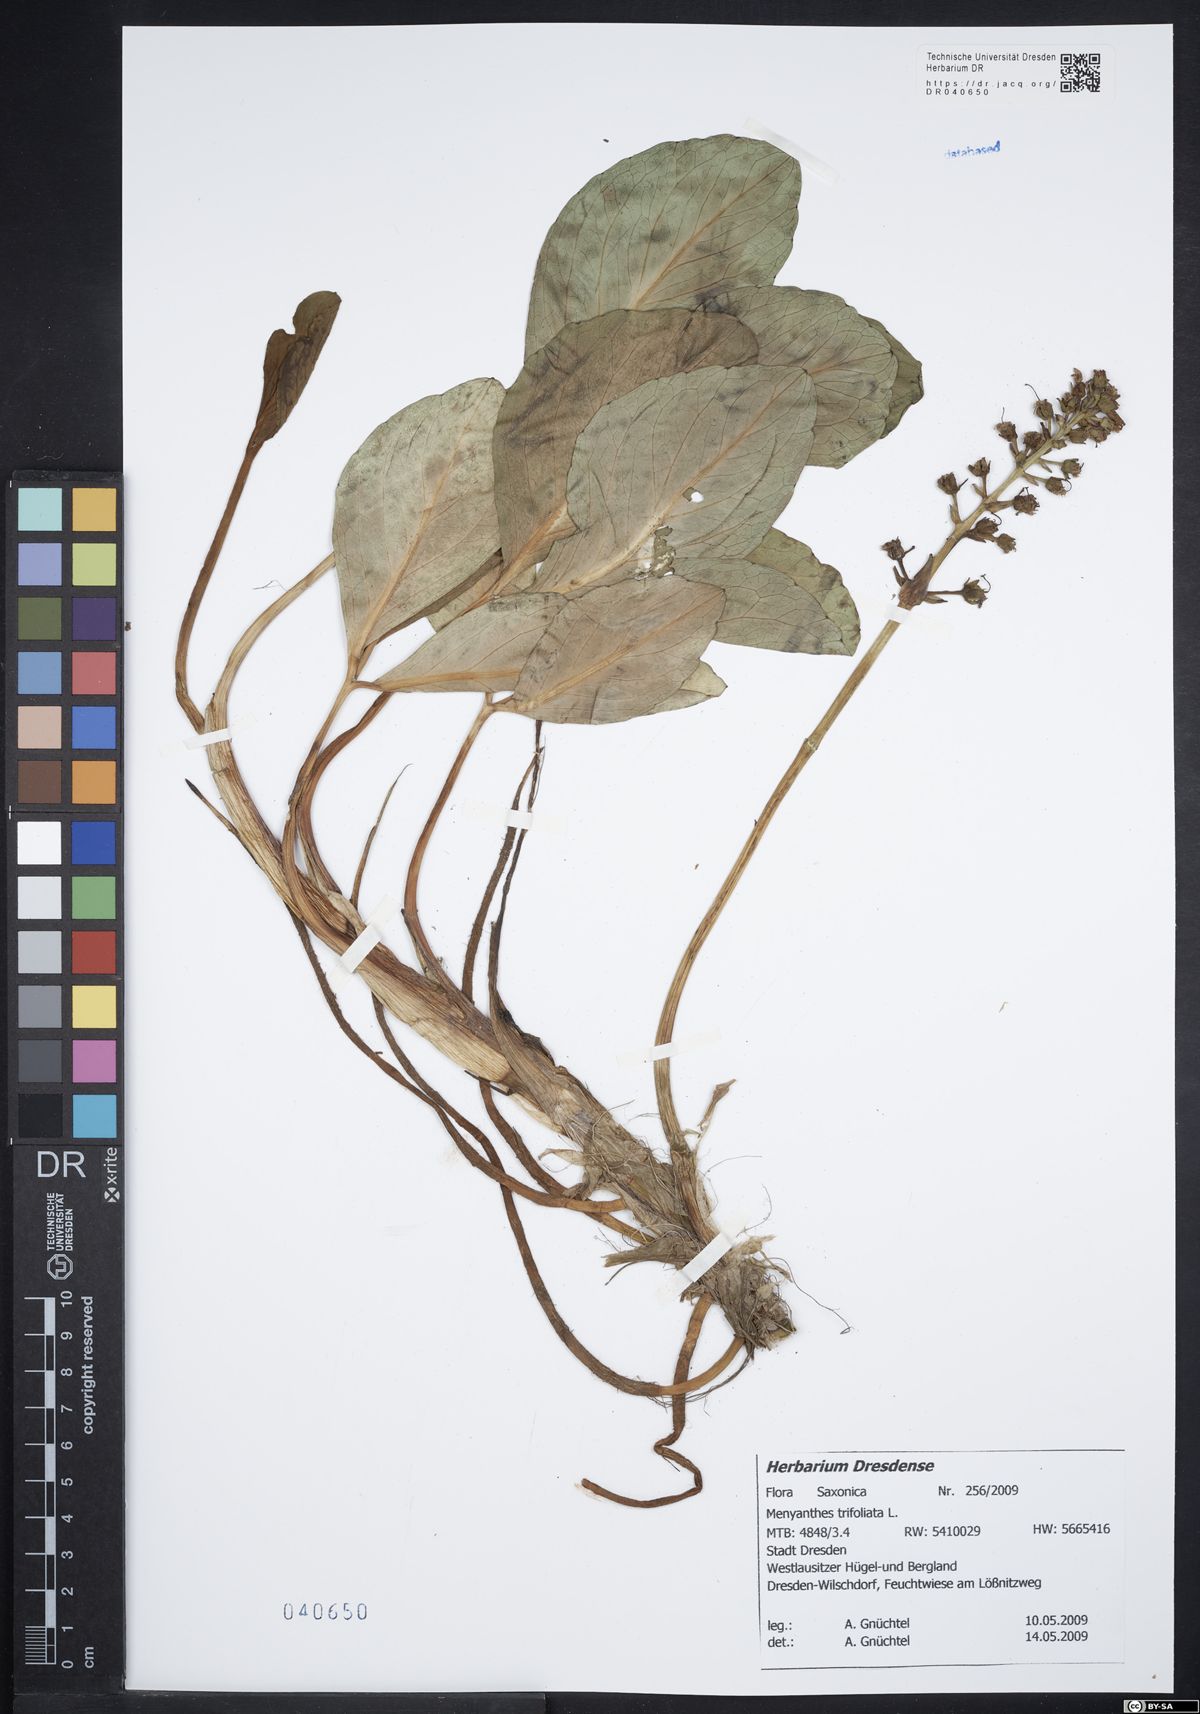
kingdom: Plantae
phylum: Tracheophyta
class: Magnoliopsida
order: Asterales
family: Menyanthaceae
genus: Menyanthes
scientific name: Menyanthes trifoliata
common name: Bogbean
